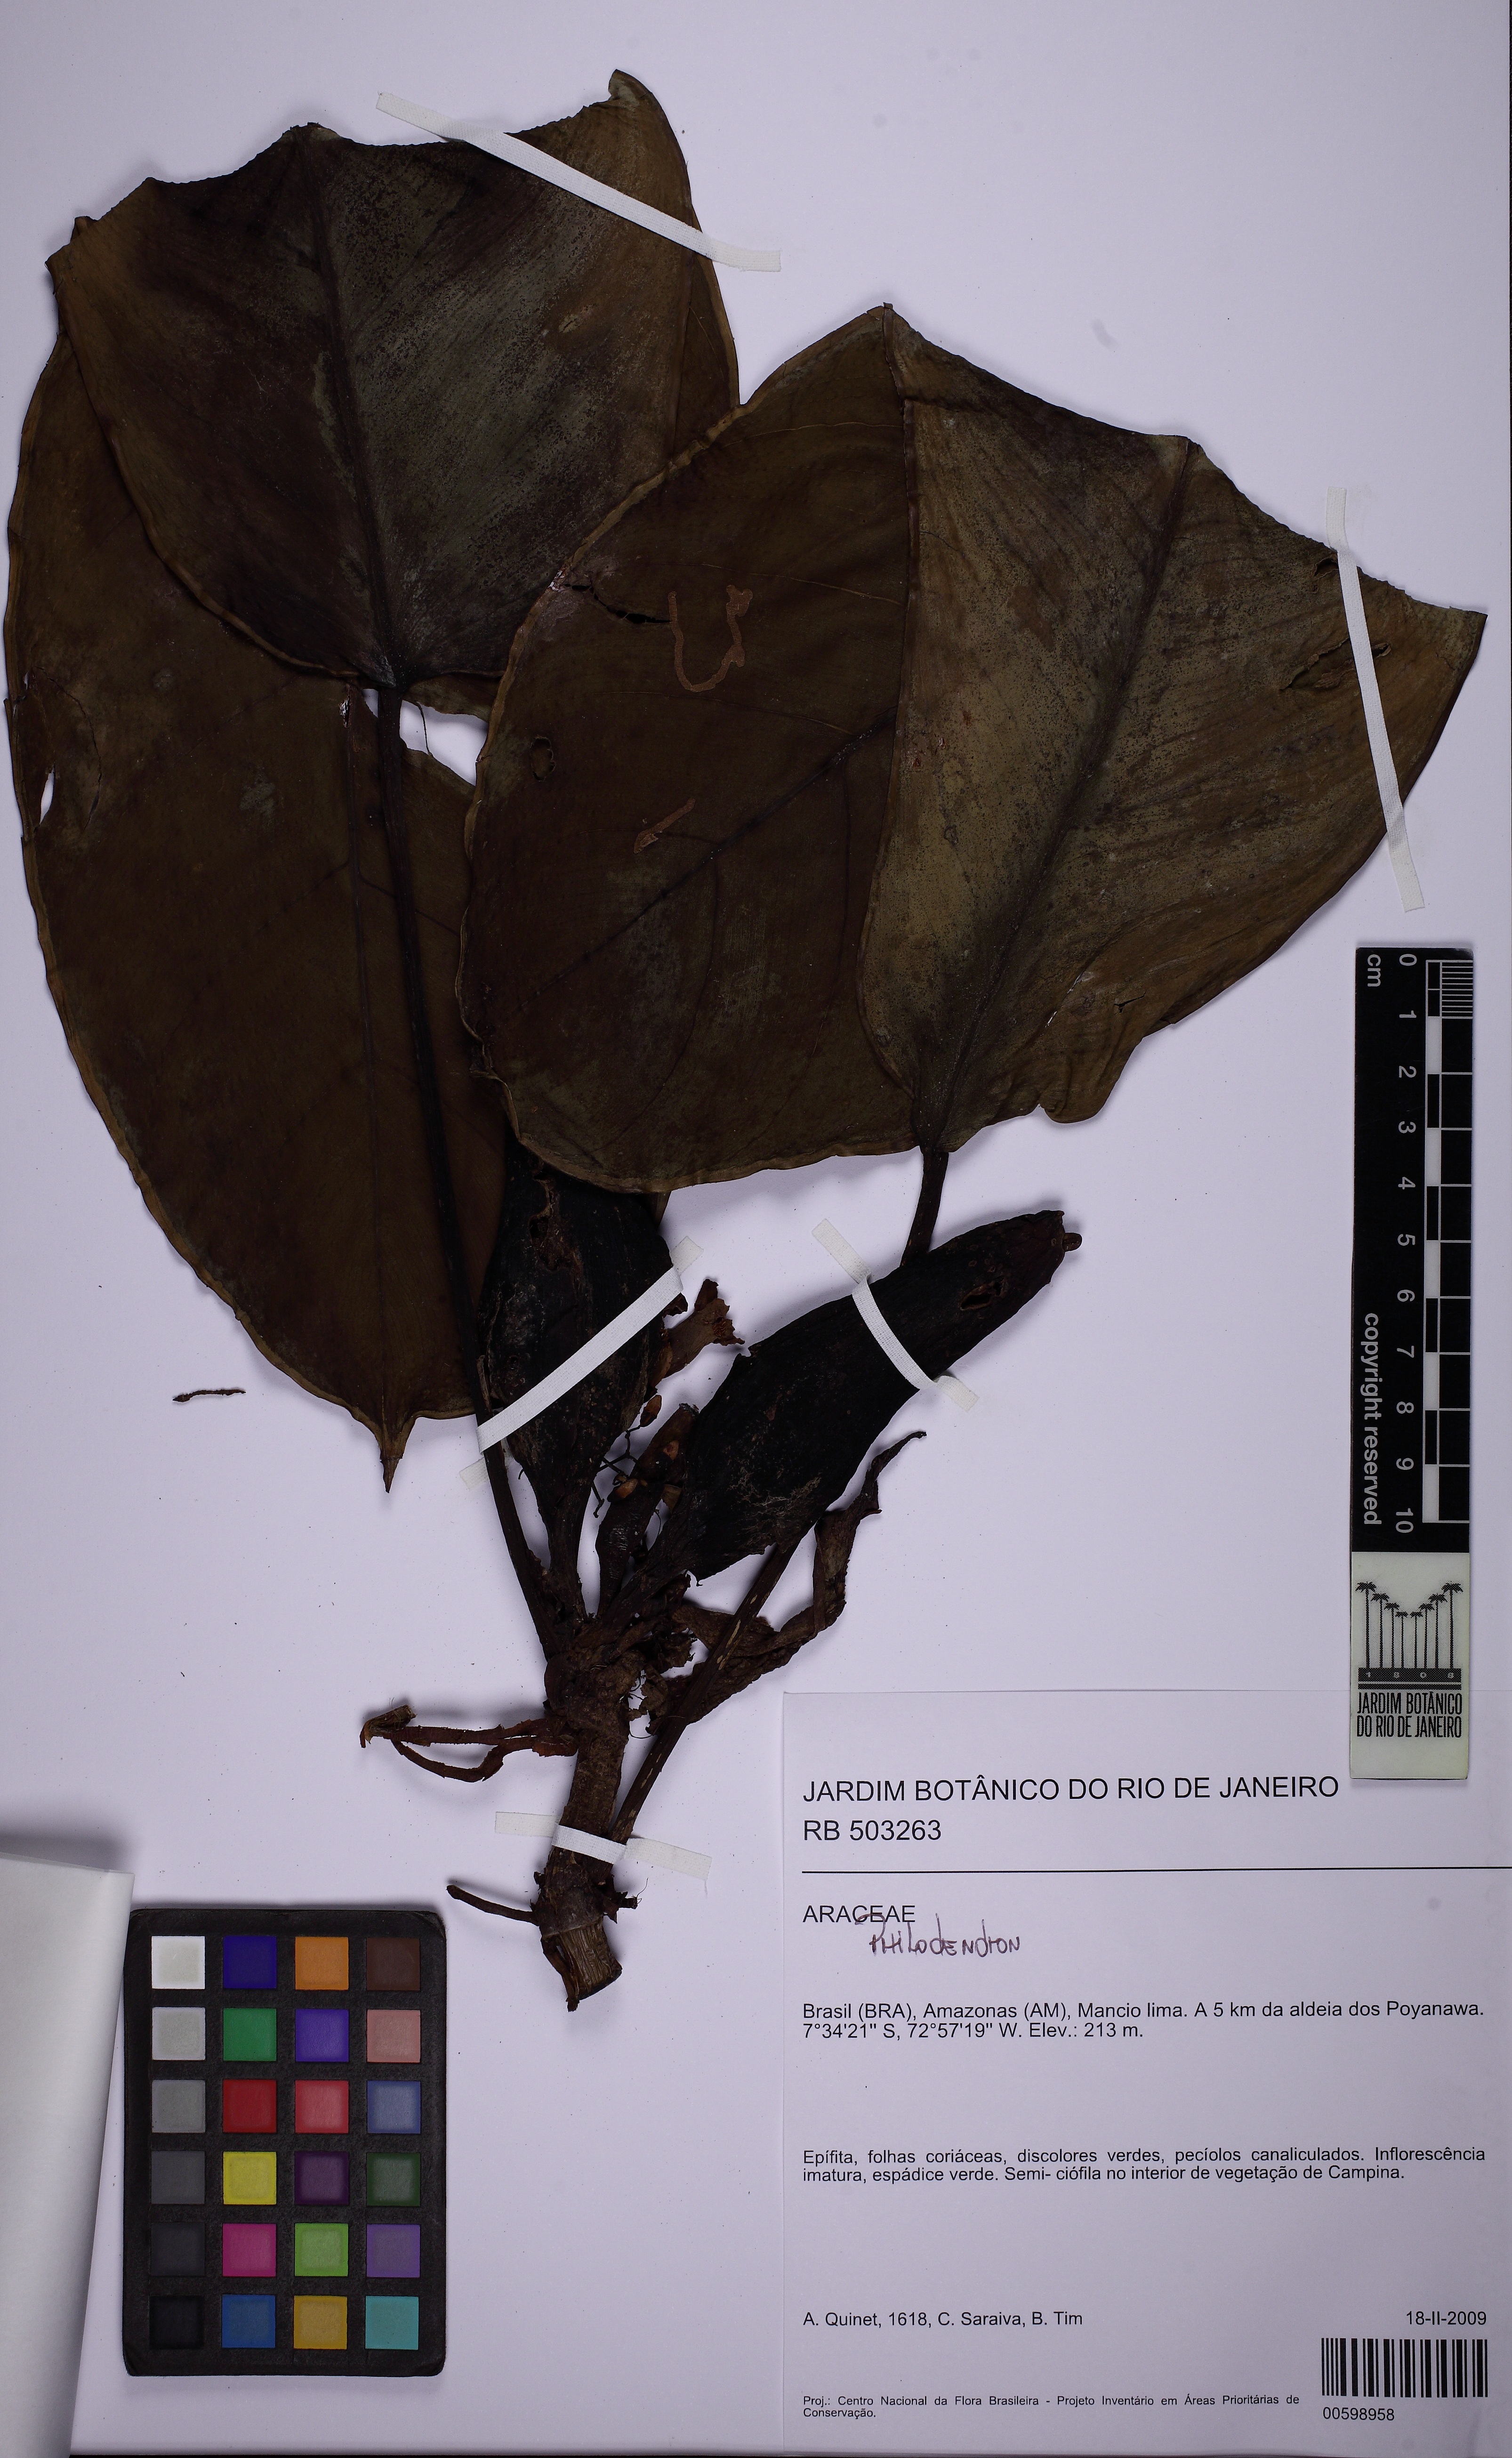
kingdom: Plantae
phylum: Tracheophyta
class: Liliopsida
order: Alismatales
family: Araceae
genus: Philodendron
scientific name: Philodendron wittianum
